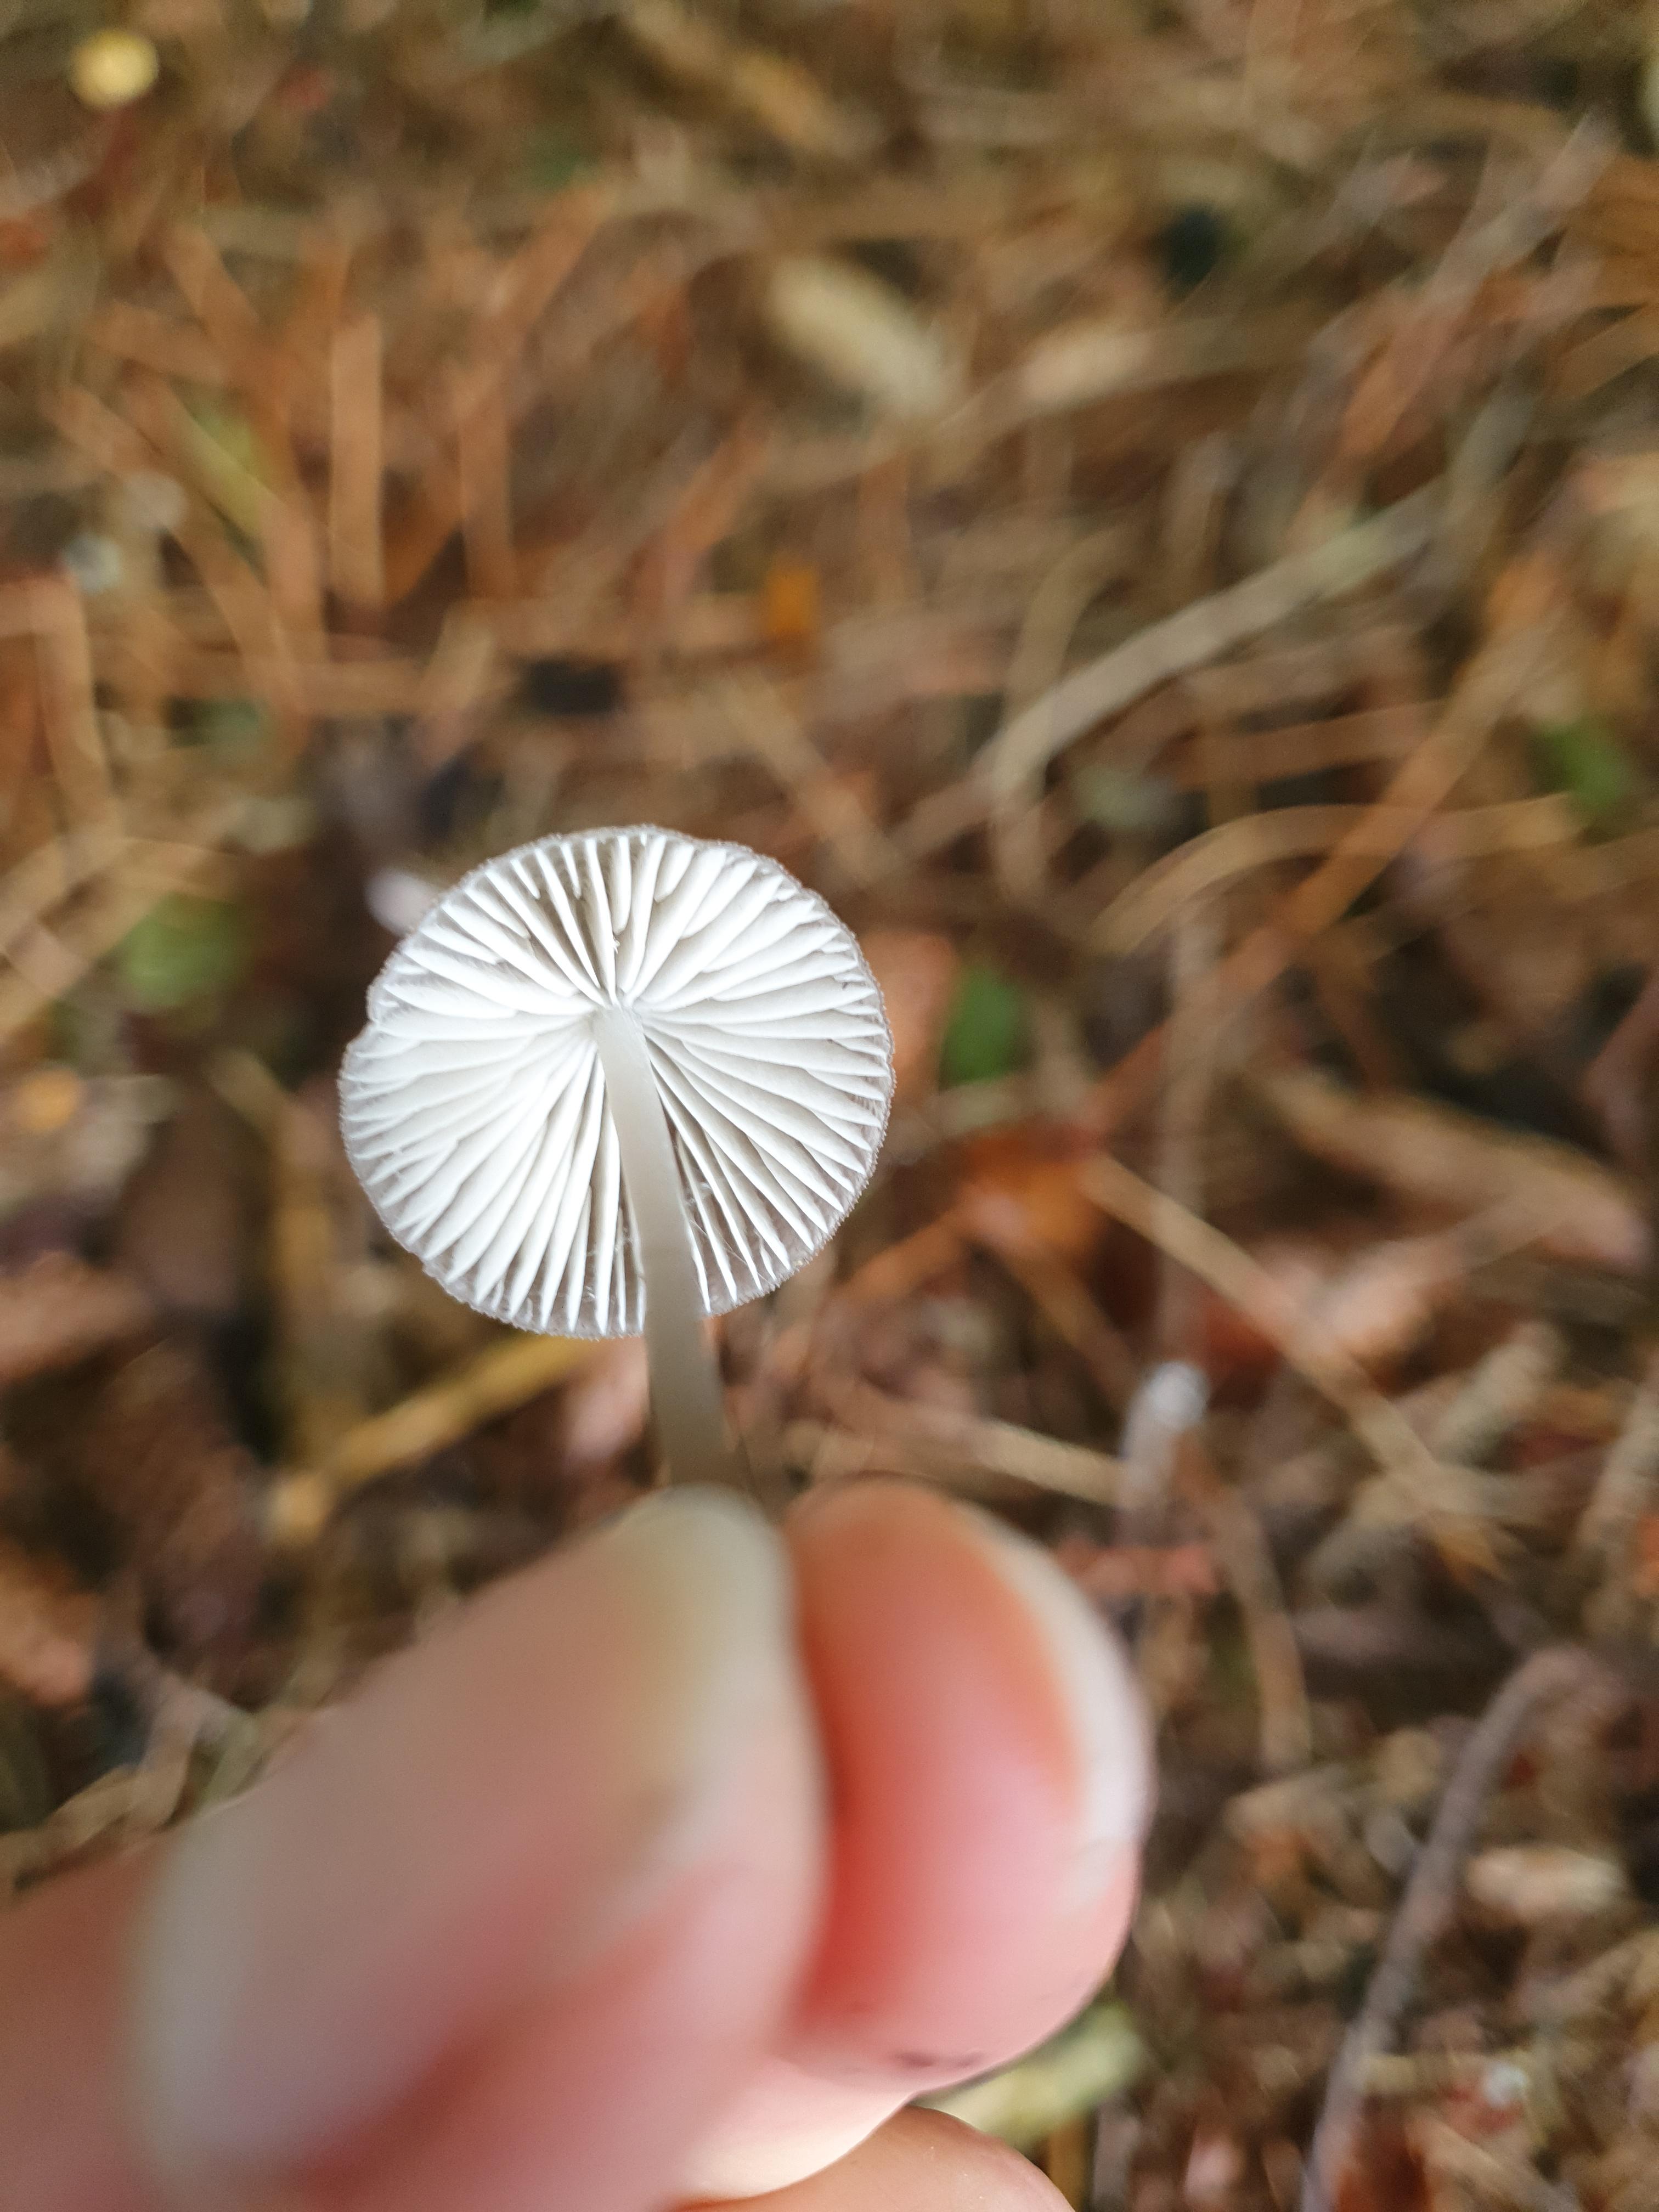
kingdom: Fungi
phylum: Basidiomycota
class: Agaricomycetes
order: Agaricales
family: Mycenaceae
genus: Mycena
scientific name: Mycena
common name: huesvamp
